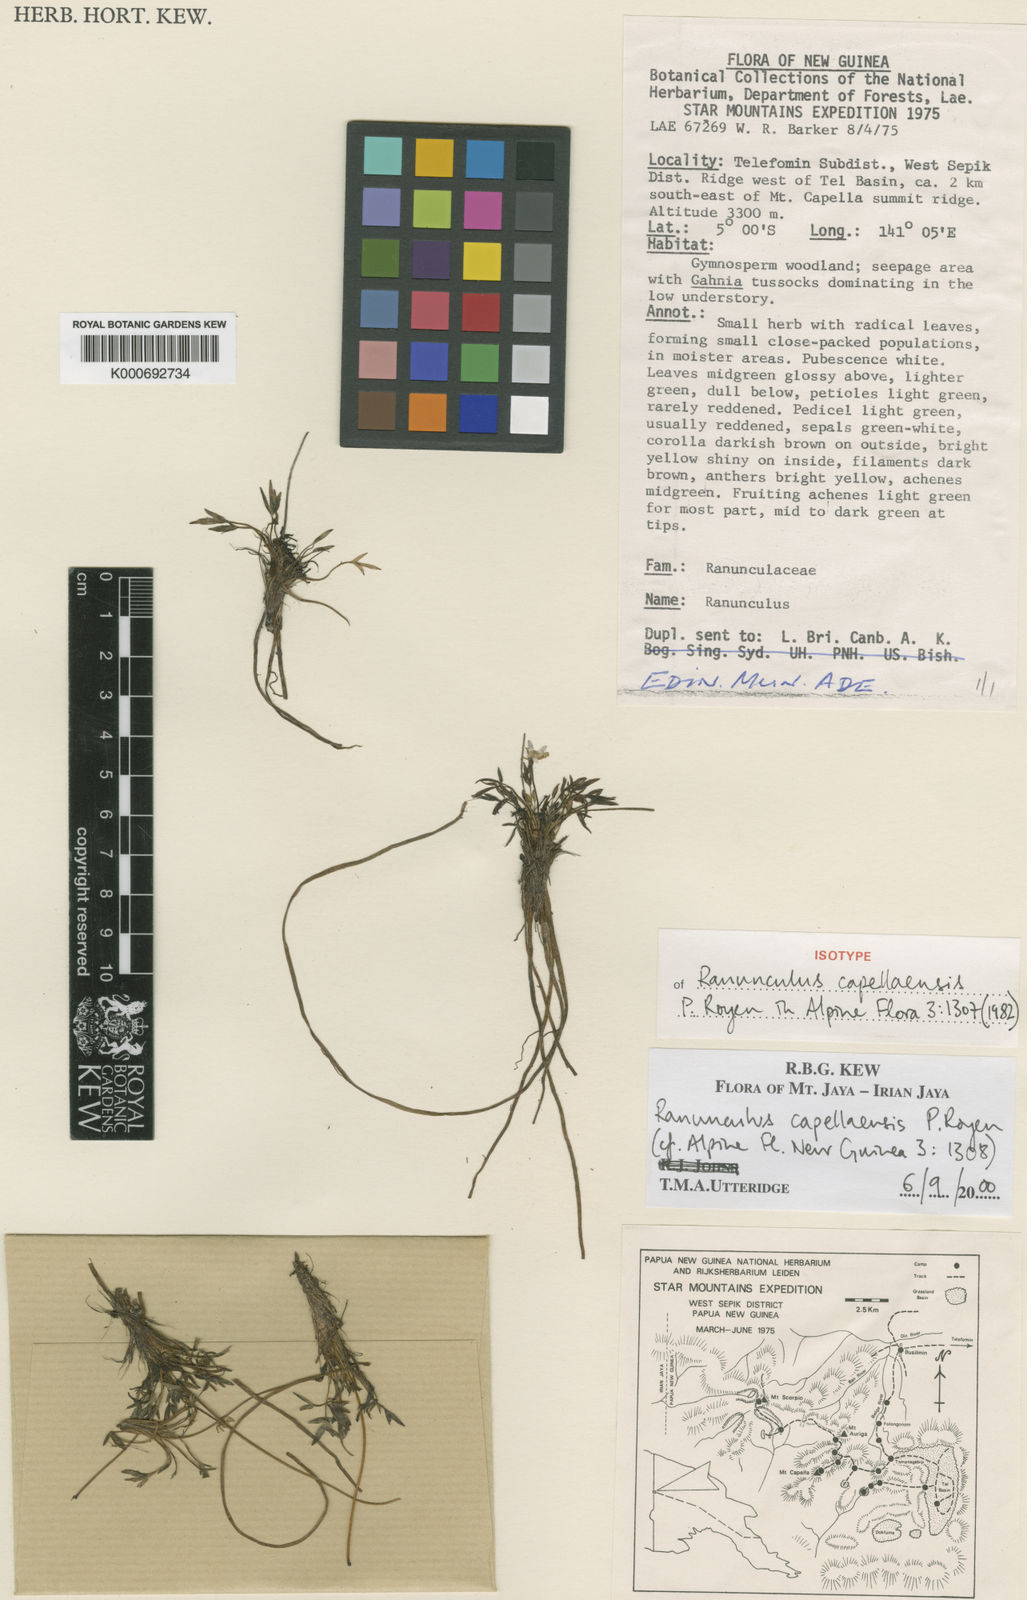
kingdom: Plantae
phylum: Tracheophyta
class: Magnoliopsida
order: Ranunculales
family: Ranunculaceae
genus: Ranunculus
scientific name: Ranunculus capellaensis
